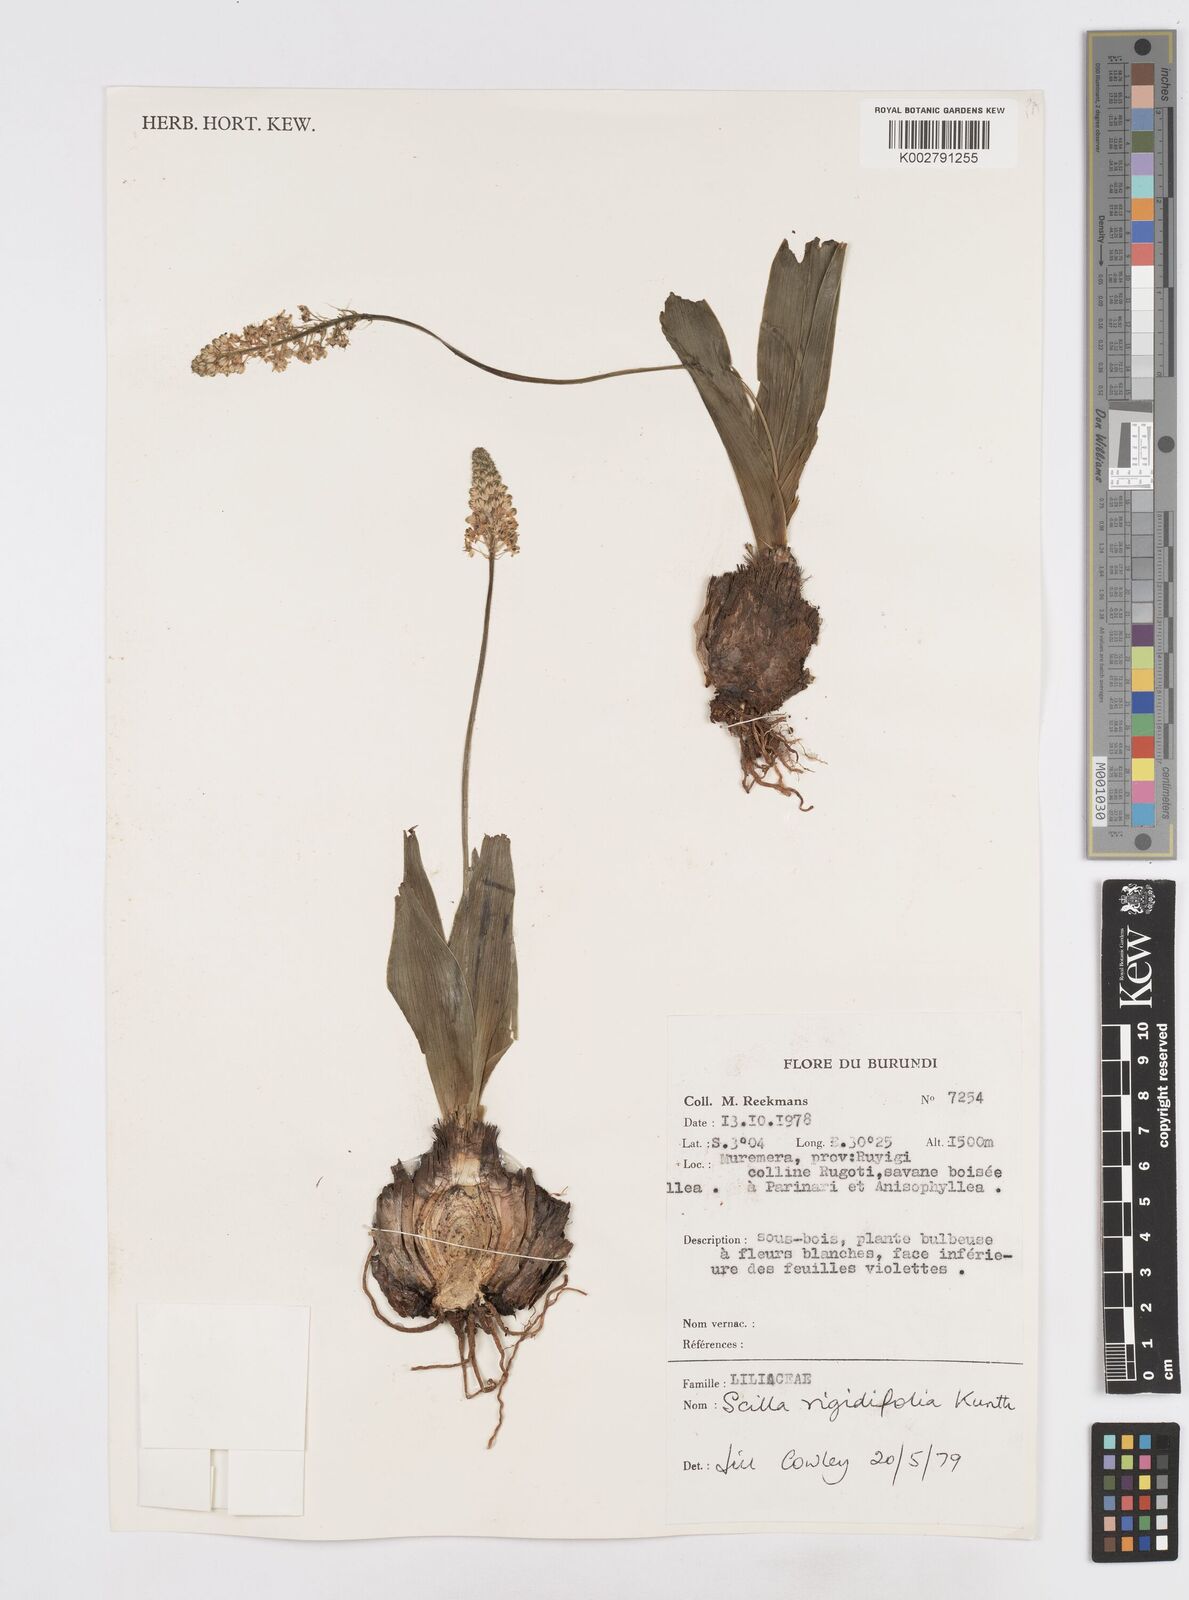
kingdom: Plantae
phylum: Tracheophyta
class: Liliopsida
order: Asparagales
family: Asparagaceae
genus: Schizocarphus
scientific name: Schizocarphus nervosus
